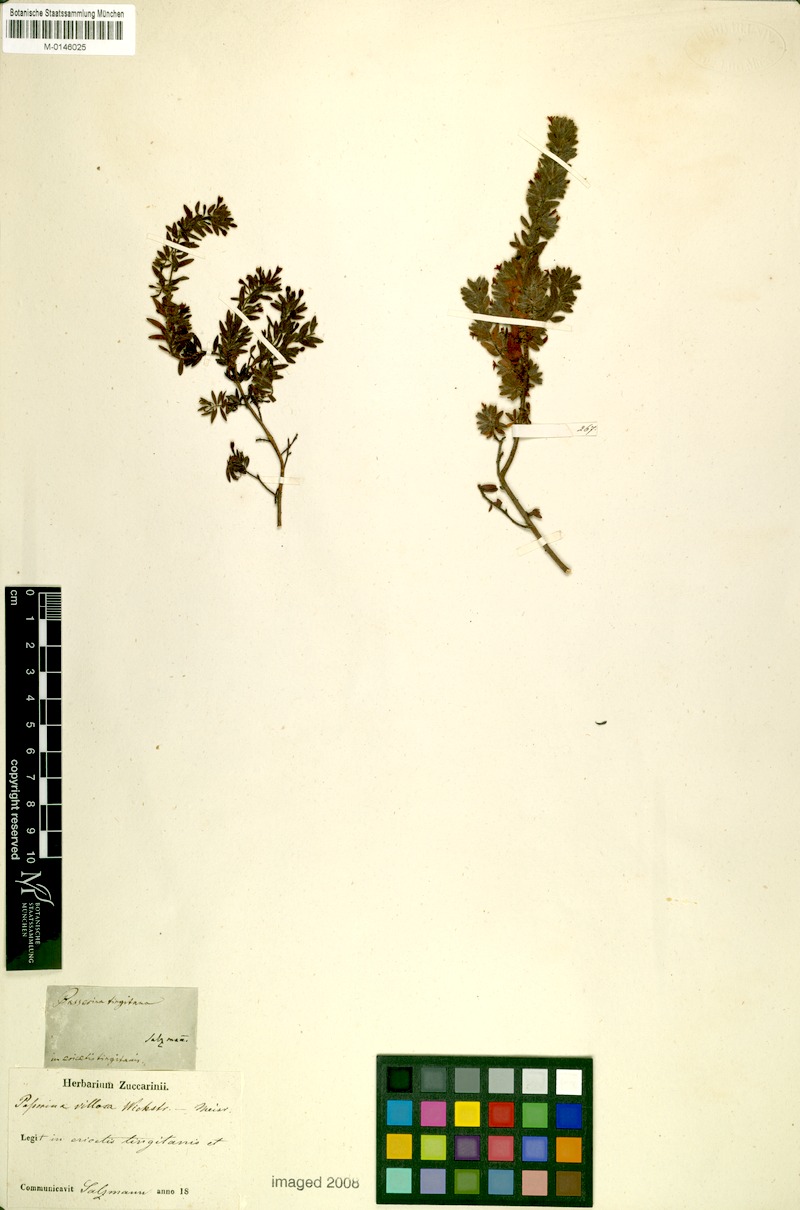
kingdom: Plantae
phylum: Tracheophyta
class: Magnoliopsida
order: Malvales
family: Thymelaeaceae
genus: Thymelaea
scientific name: Thymelaea villosa
